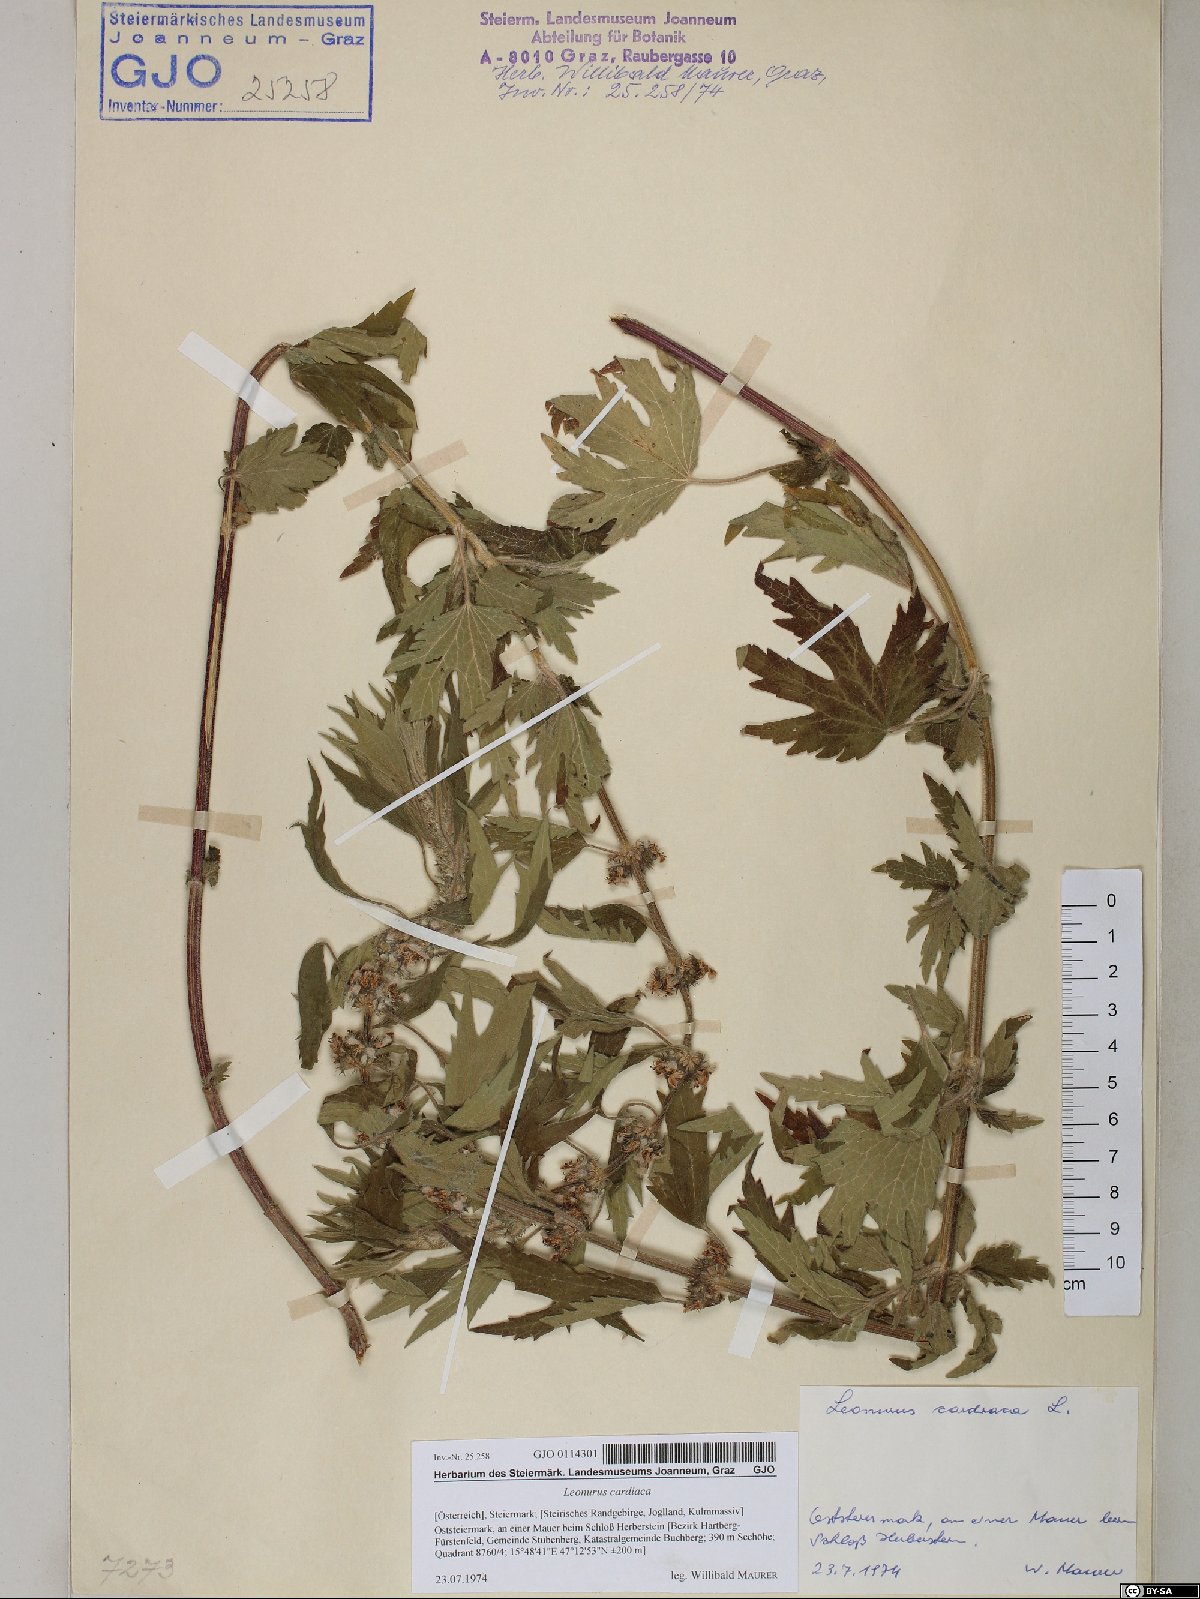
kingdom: Plantae
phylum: Tracheophyta
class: Magnoliopsida
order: Lamiales
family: Lamiaceae
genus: Leonurus
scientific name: Leonurus cardiaca
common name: Motherwort
